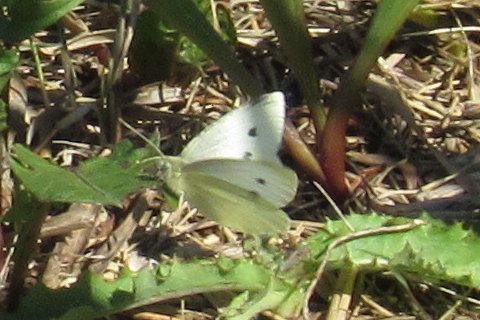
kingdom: Animalia
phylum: Arthropoda
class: Insecta
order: Lepidoptera
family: Pieridae
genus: Pieris
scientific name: Pieris rapae
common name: Cabbage White
